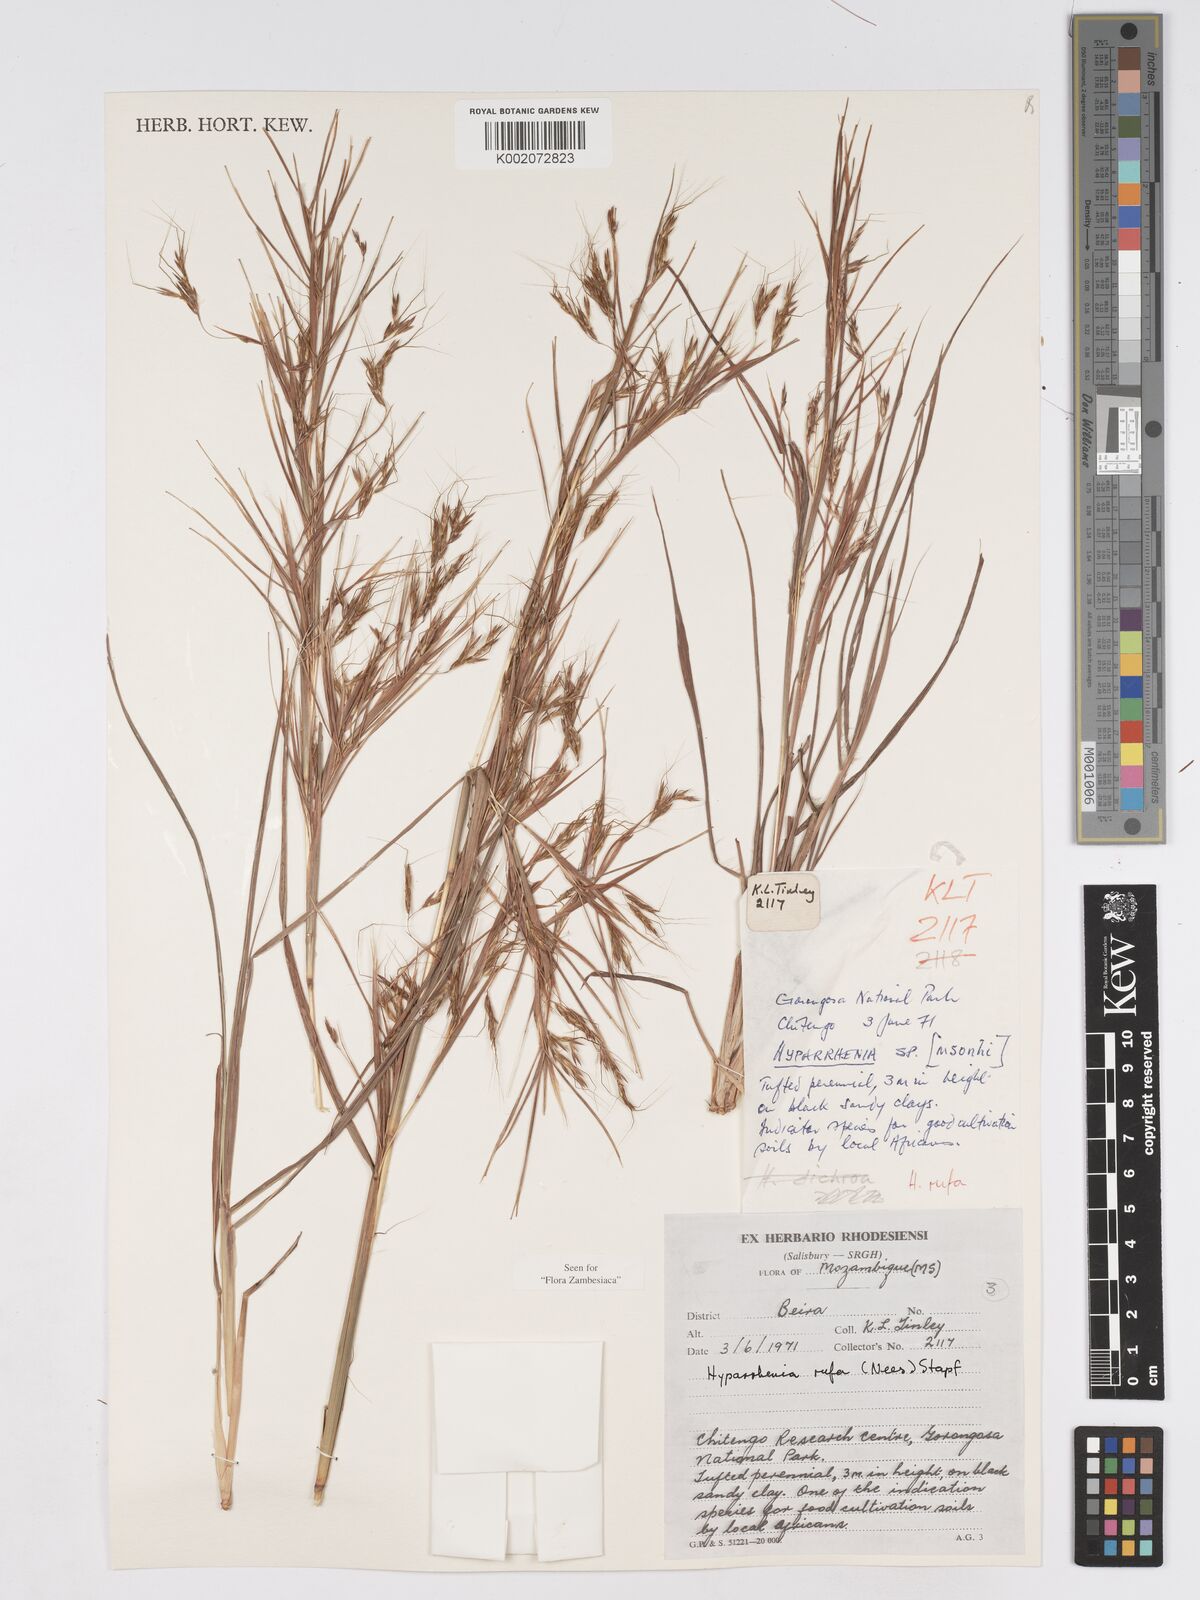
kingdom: Plantae
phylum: Tracheophyta
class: Liliopsida
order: Poales
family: Poaceae
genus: Hyparrhenia
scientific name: Hyparrhenia rufa
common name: Jaraguagrass
